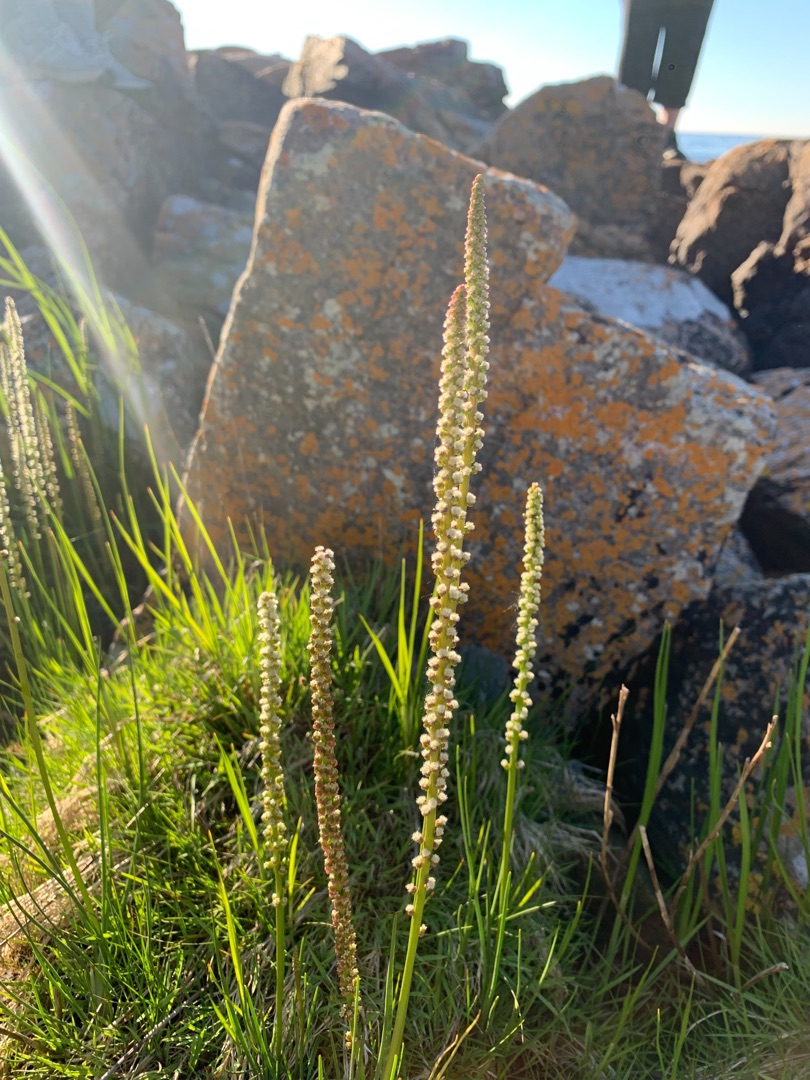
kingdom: Plantae
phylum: Tracheophyta
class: Liliopsida
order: Alismatales
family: Juncaginaceae
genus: Triglochin
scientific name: Triglochin maritima
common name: Strand-trehage
